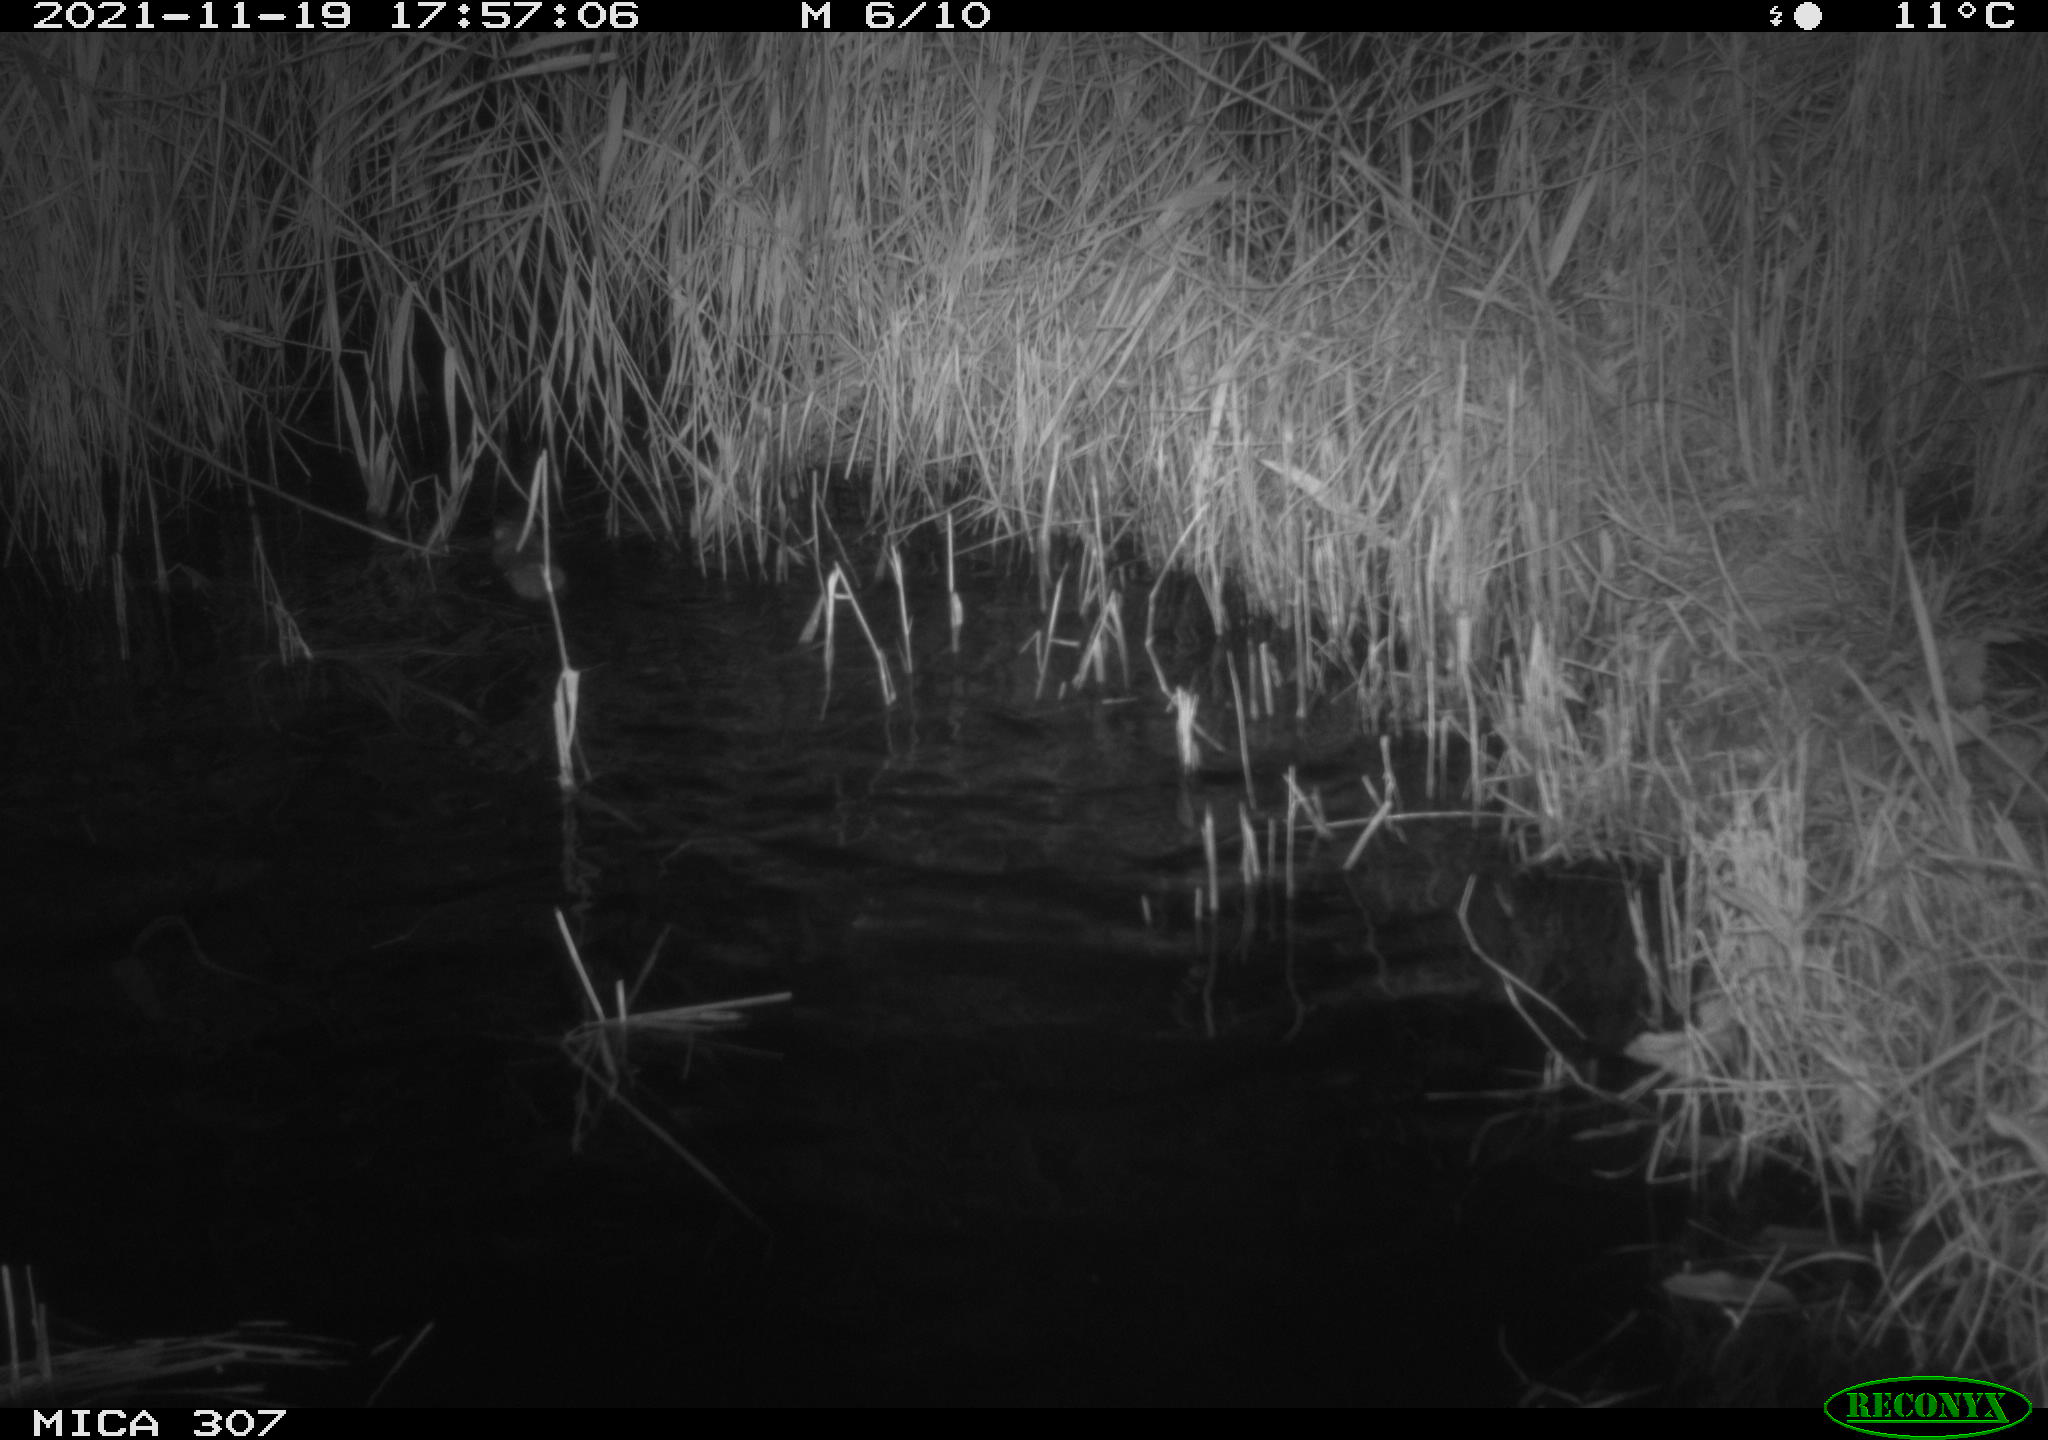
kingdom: Animalia
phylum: Chordata
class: Mammalia
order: Rodentia
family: Muridae
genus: Rattus
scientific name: Rattus norvegicus
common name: Brown rat
